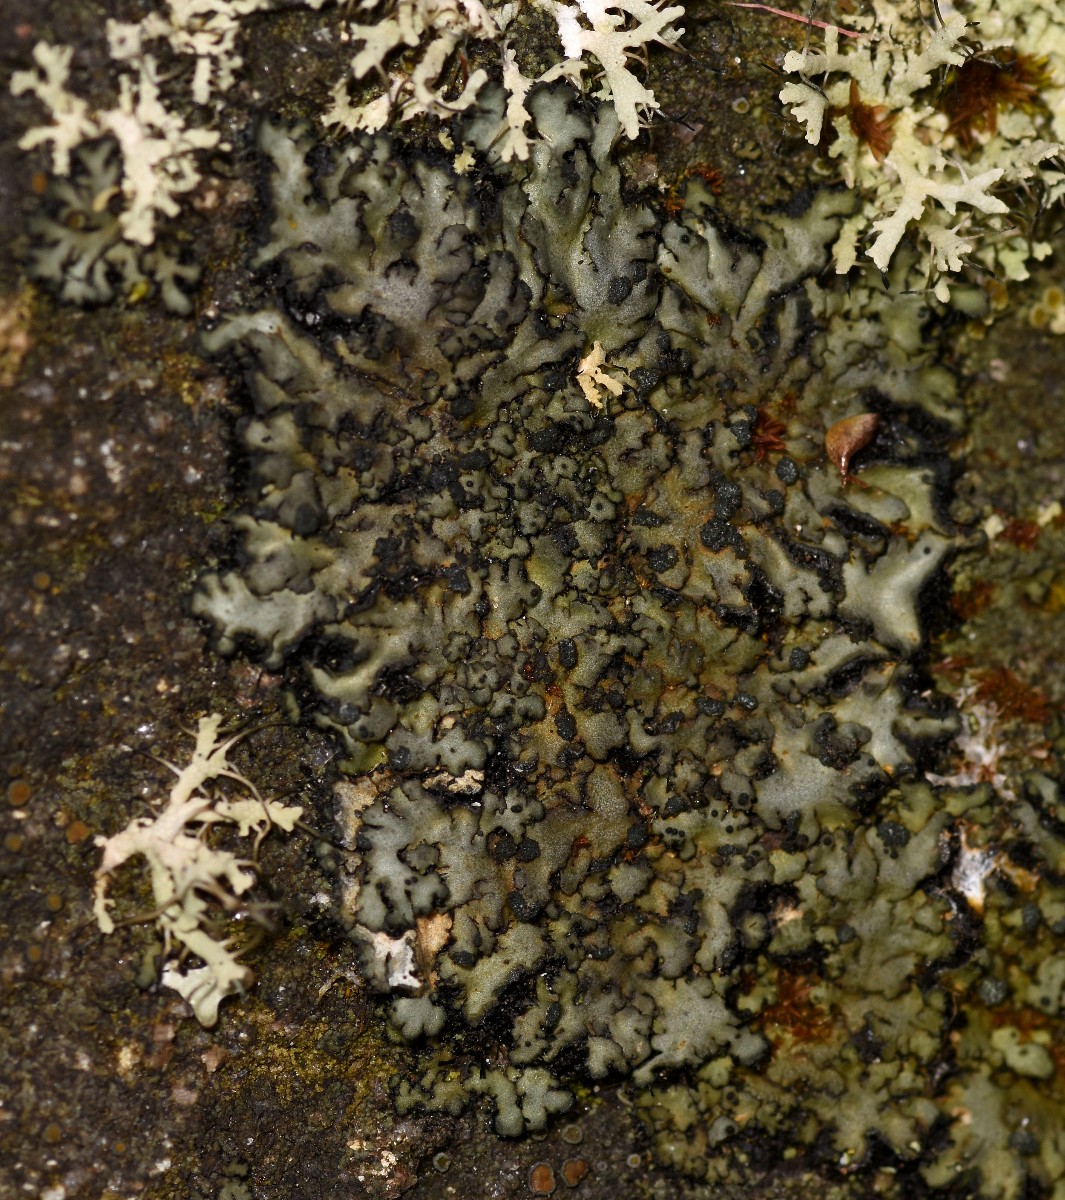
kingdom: Fungi
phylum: Ascomycota
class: Lecanoromycetes
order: Caliciales
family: Physciaceae
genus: Phaeophyscia
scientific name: Phaeophyscia orbicularis
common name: grågrøn rosetlav
